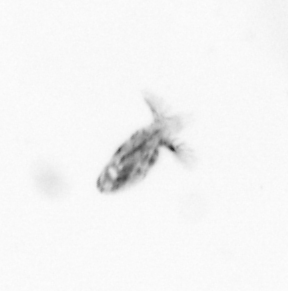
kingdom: Animalia
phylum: Arthropoda
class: Copepoda
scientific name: Copepoda
